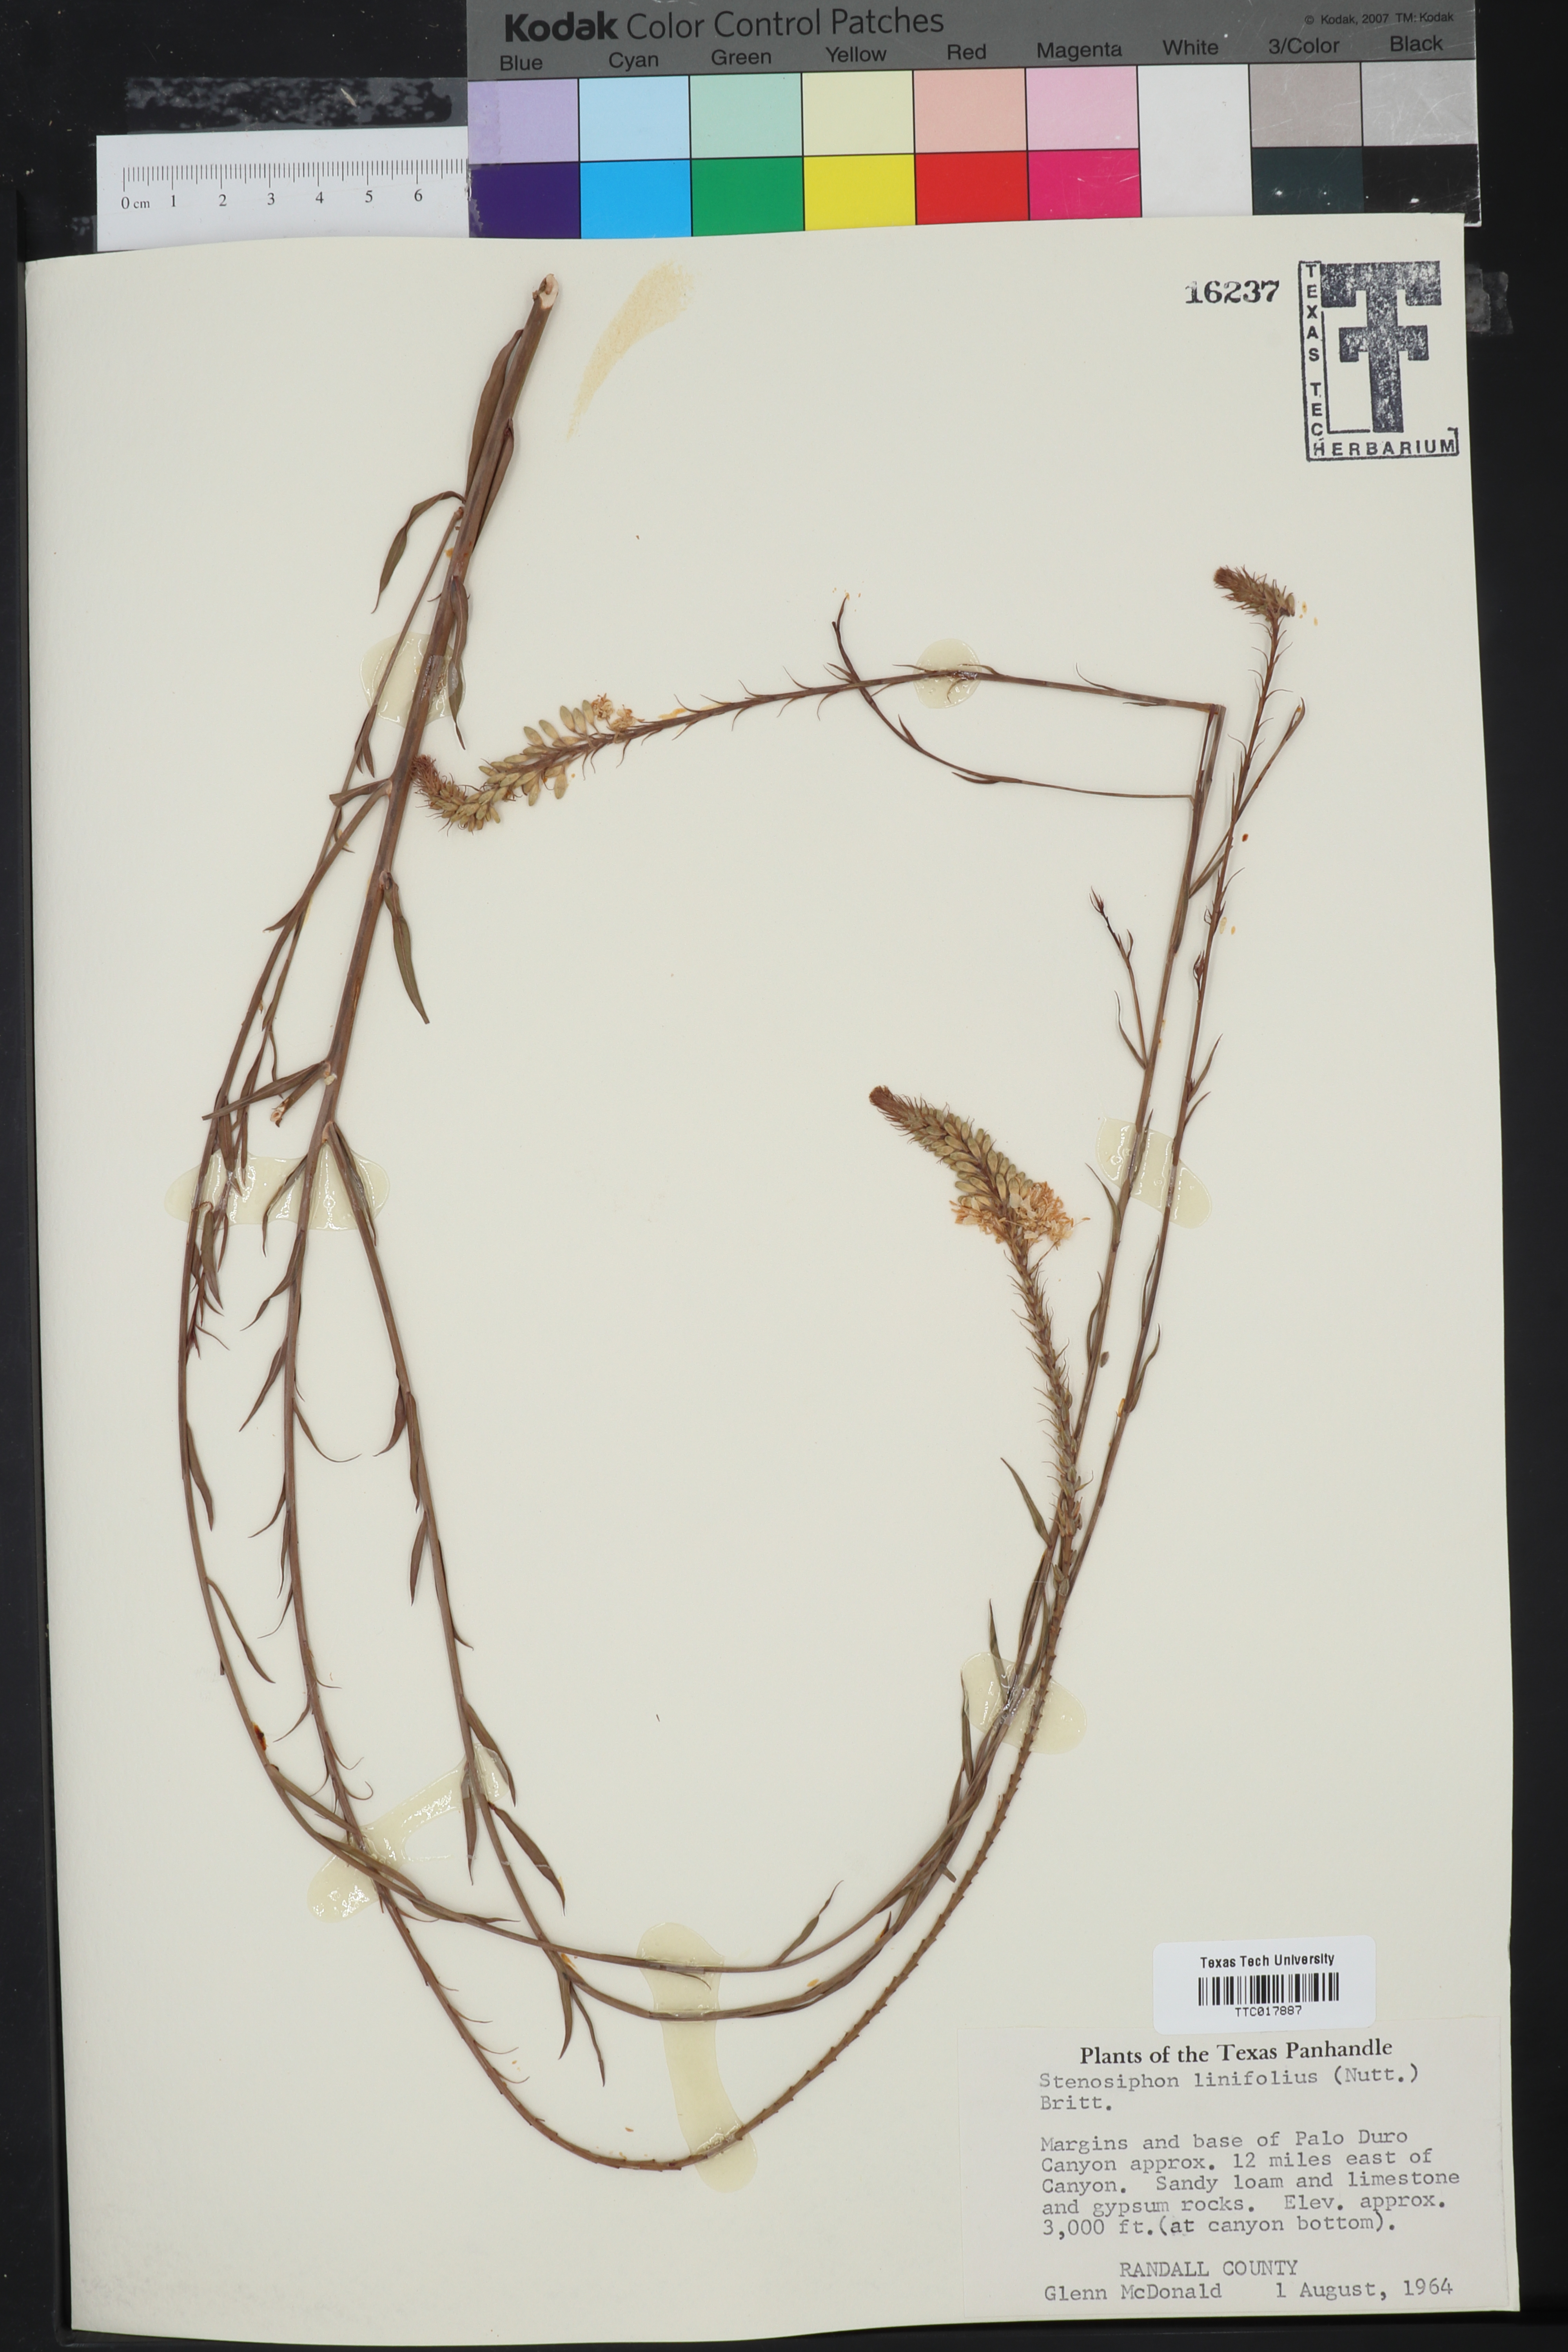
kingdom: Plantae
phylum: Tracheophyta
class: Magnoliopsida
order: Myrtales
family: Onagraceae
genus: Oenothera
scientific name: Oenothera glaucifolia
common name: False gaura
